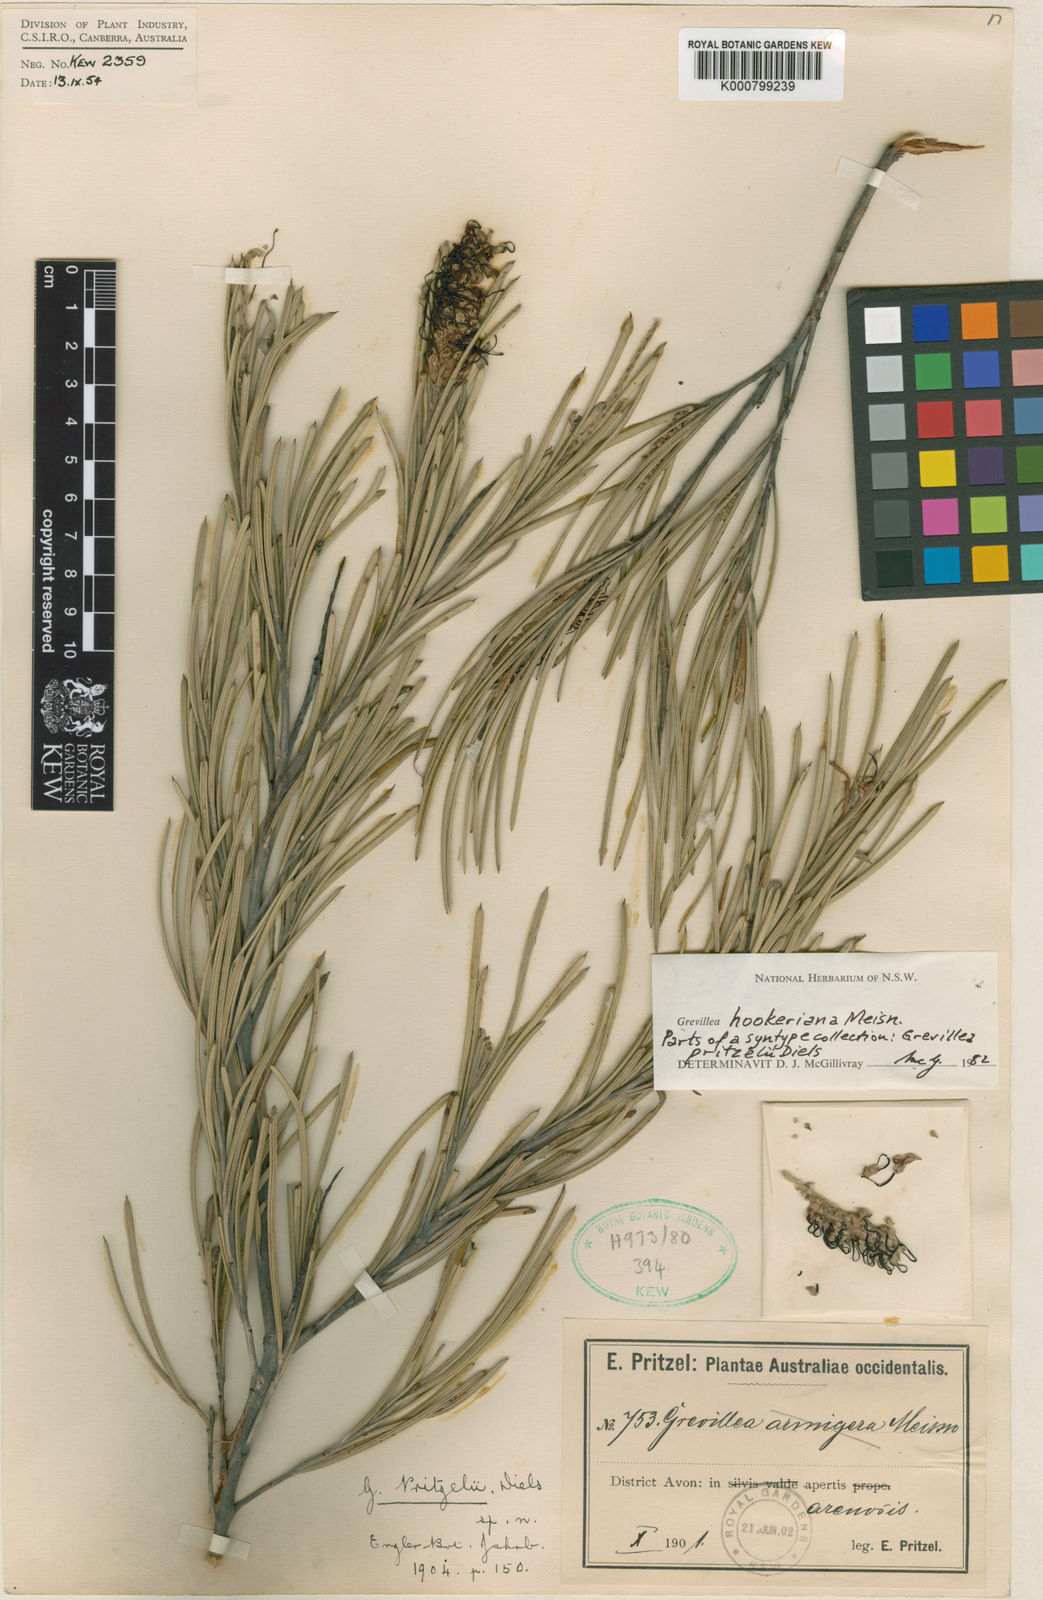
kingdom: Plantae
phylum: Tracheophyta
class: Magnoliopsida
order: Proteales
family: Proteaceae
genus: Grevillea
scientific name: Grevillea hookeriana
